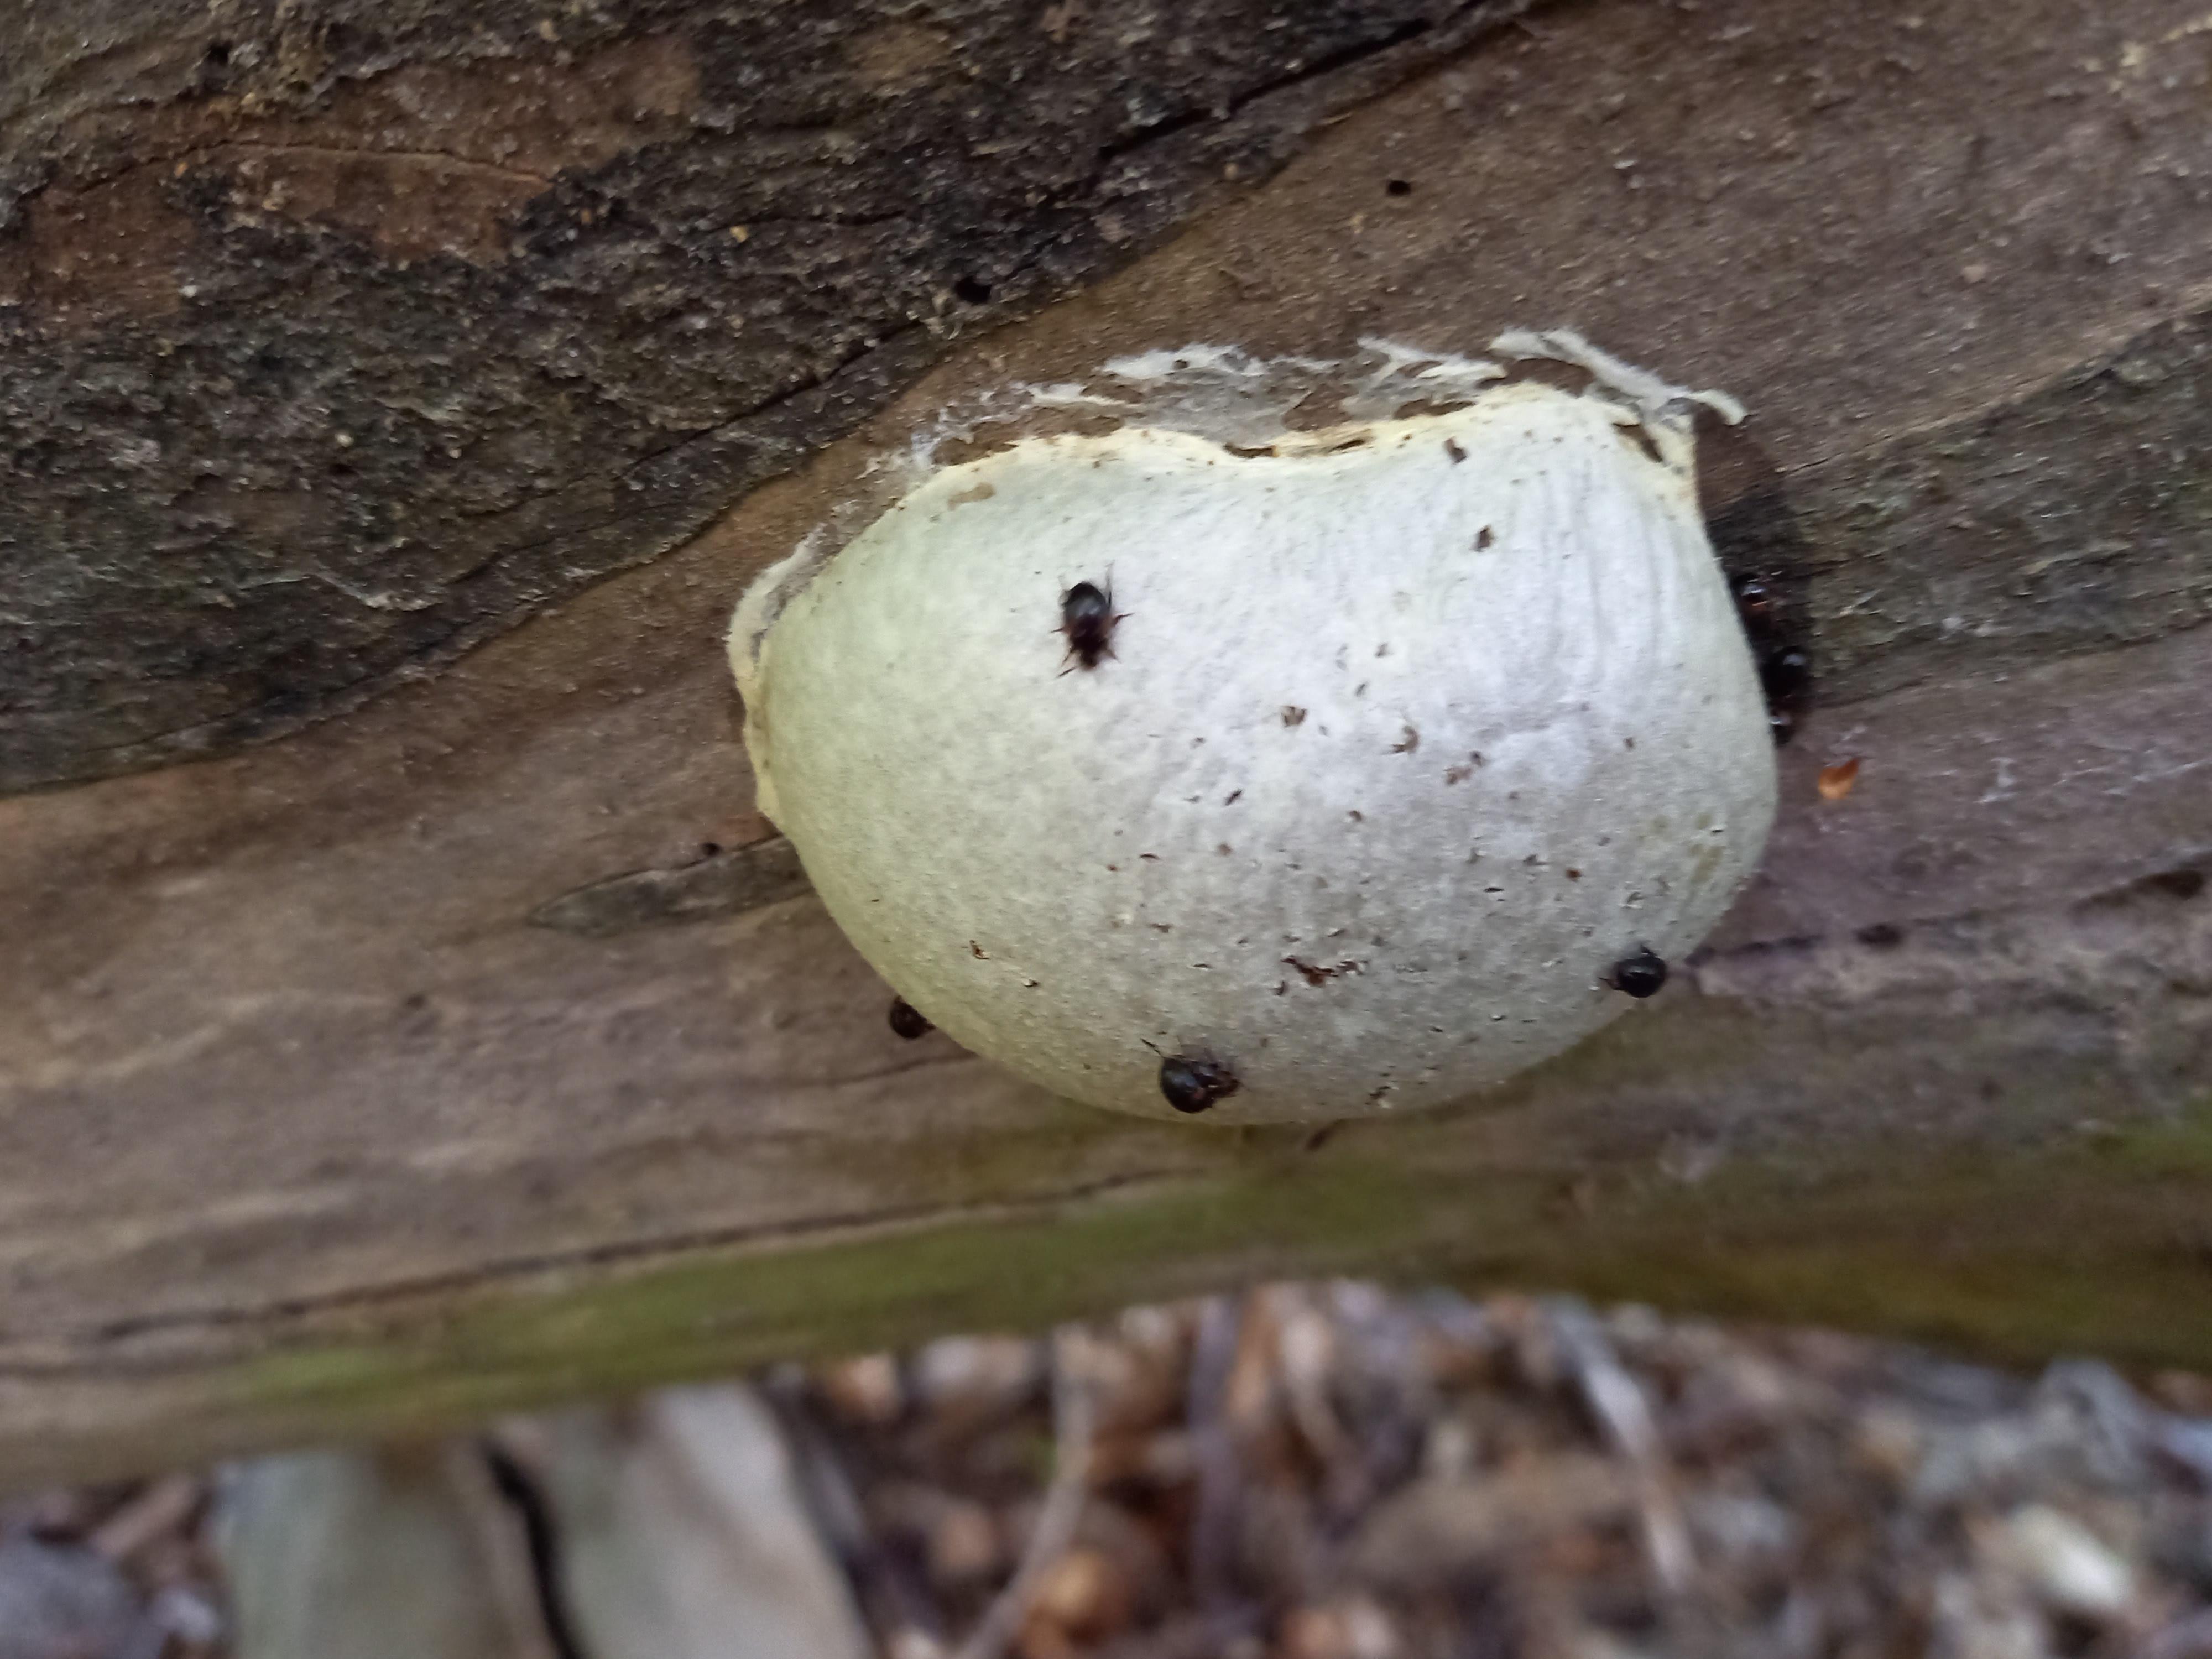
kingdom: Protozoa
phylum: Mycetozoa
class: Myxomycetes
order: Cribrariales
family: Tubiferaceae
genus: Reticularia
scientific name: Reticularia lycoperdon
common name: skinnende støvpude
